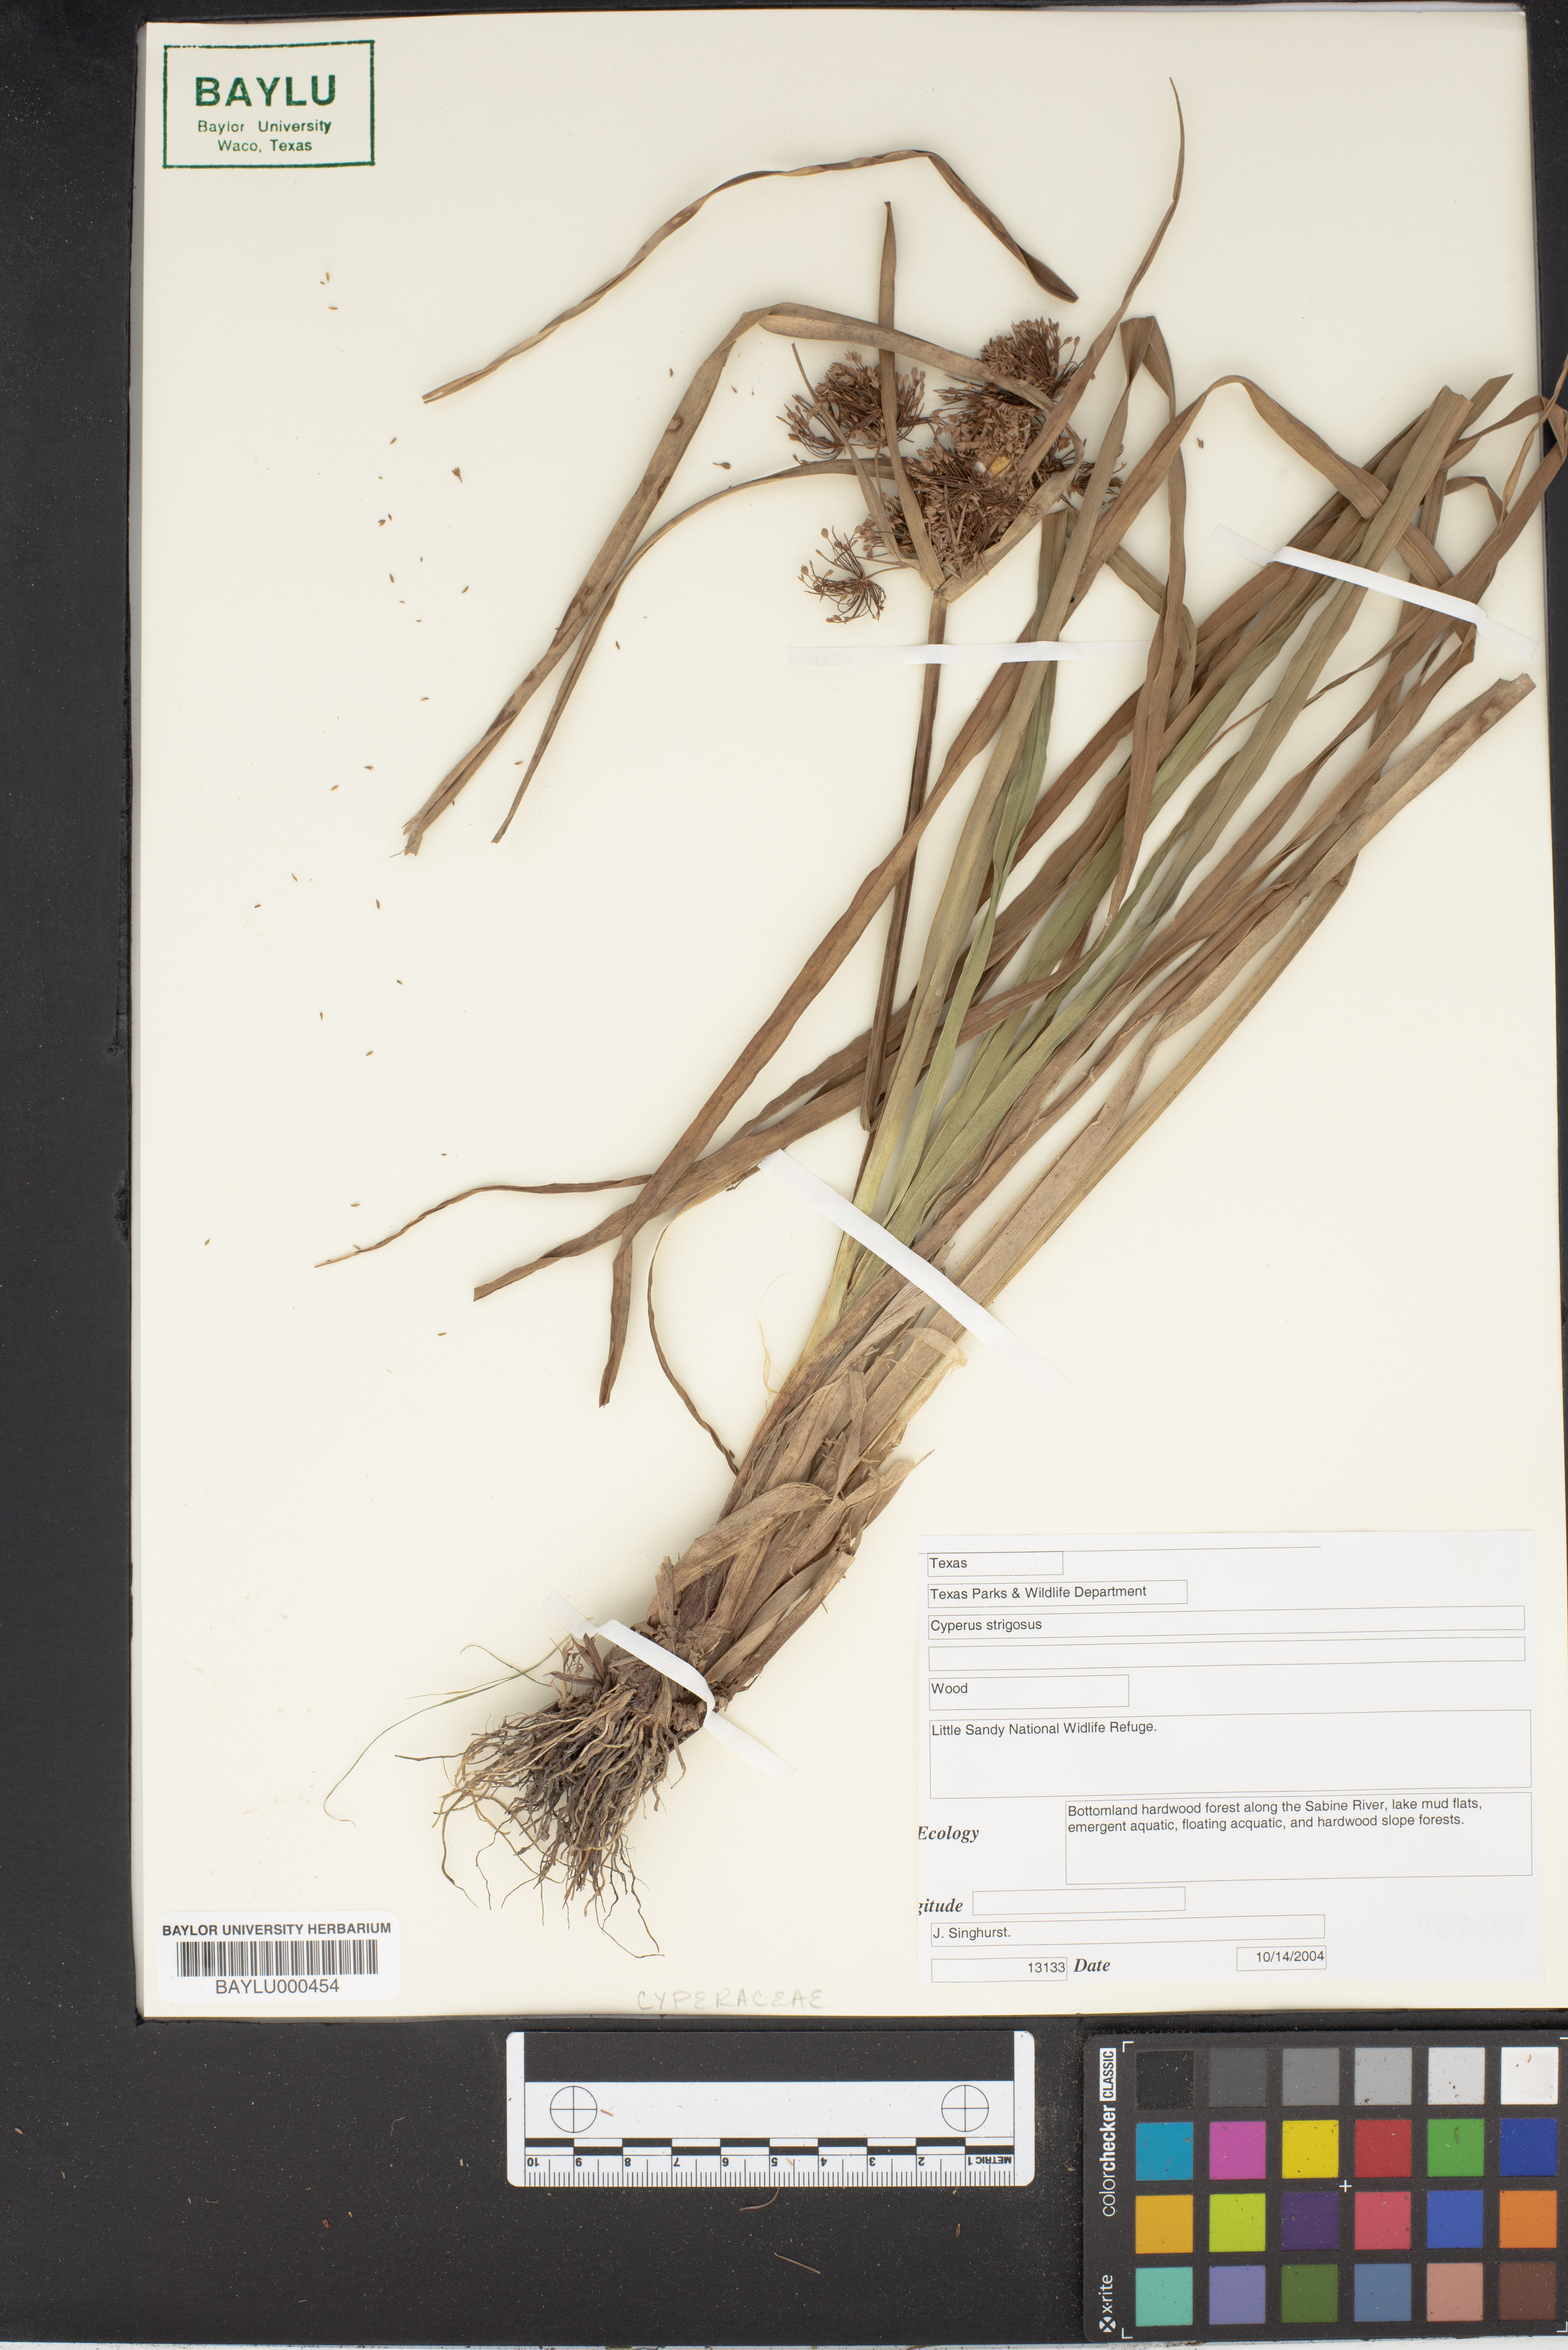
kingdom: Plantae
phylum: Tracheophyta
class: Liliopsida
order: Poales
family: Cyperaceae
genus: Cyperus
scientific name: Cyperus strigosus
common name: False nutsedge
